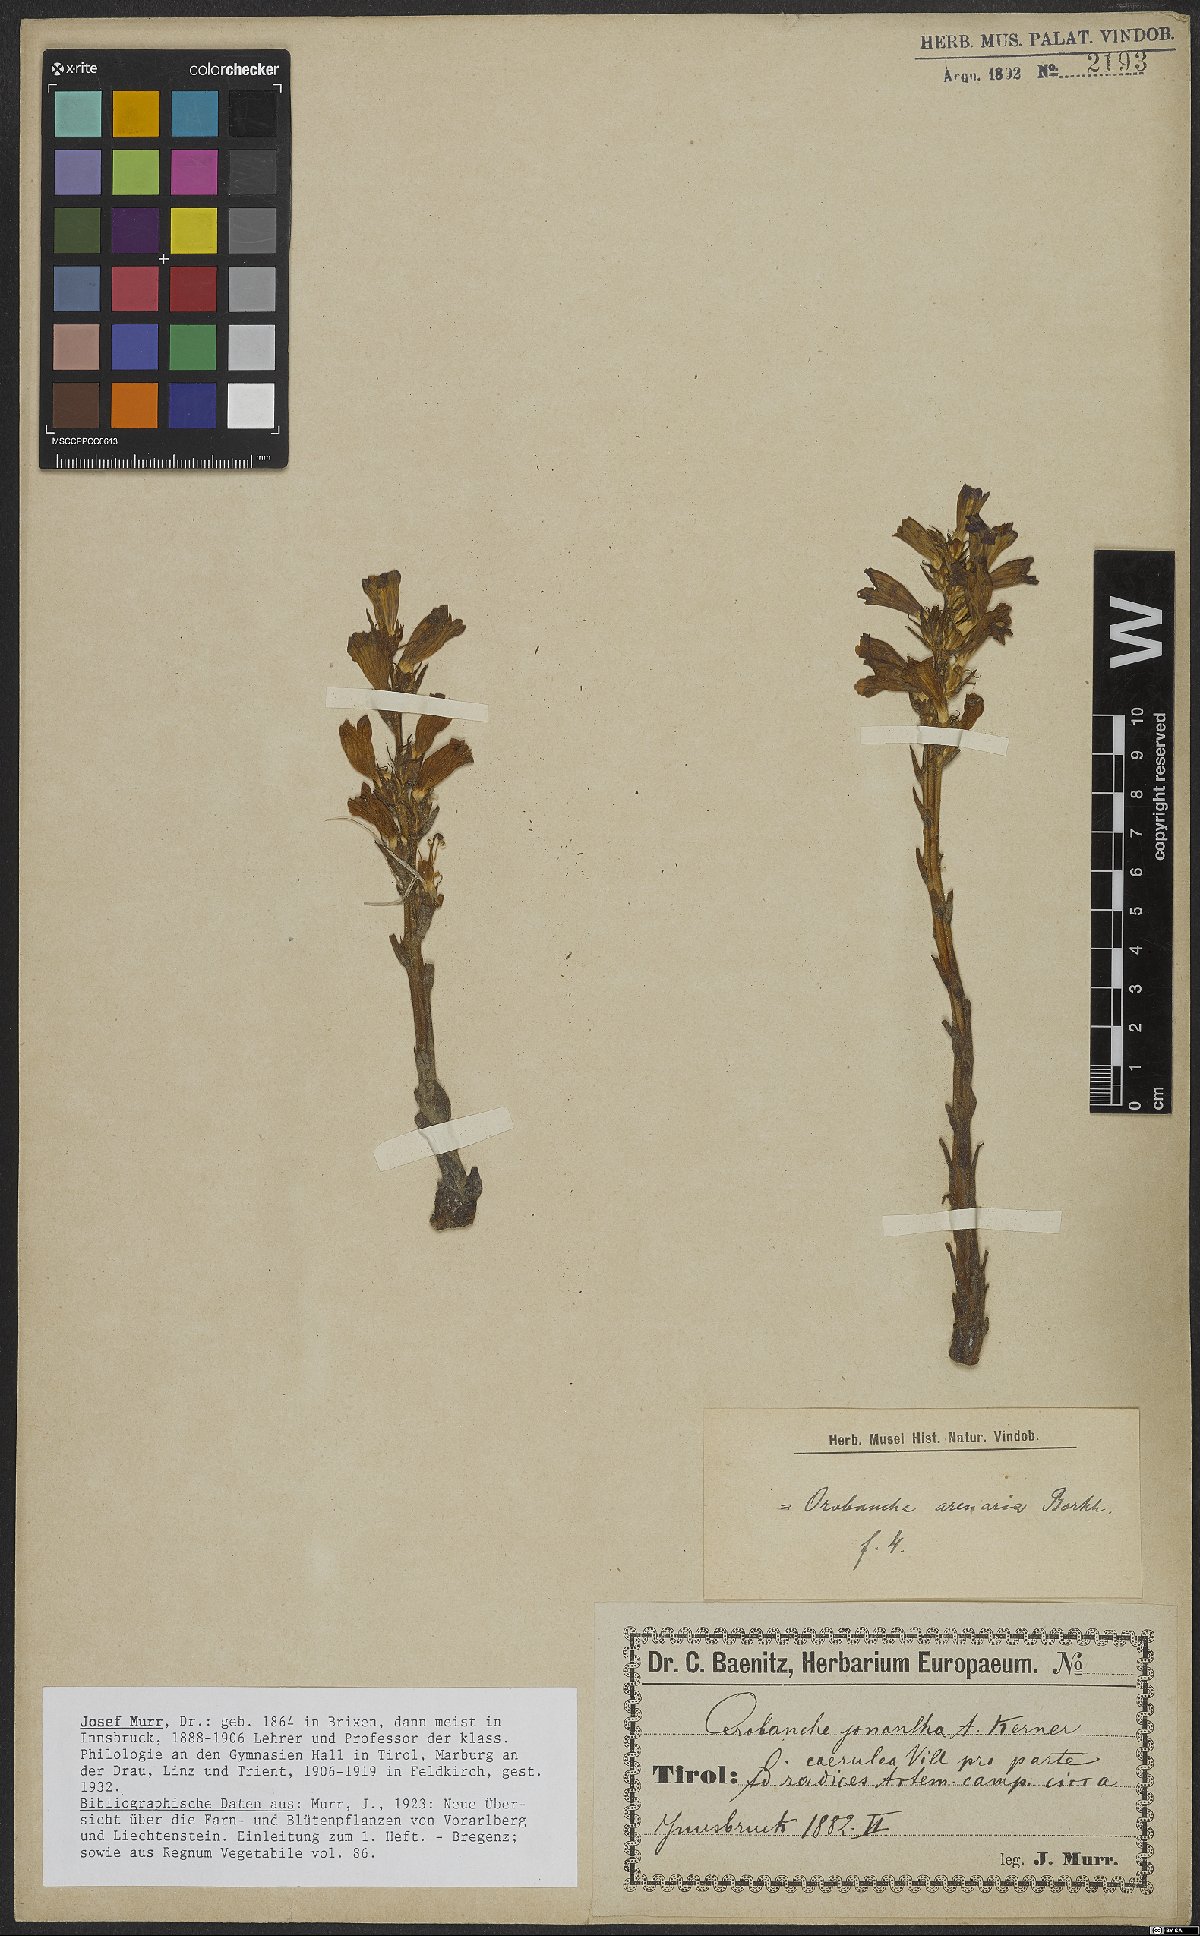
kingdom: Plantae
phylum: Tracheophyta
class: Magnoliopsida
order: Lamiales
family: Orobanchaceae
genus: Phelipanche
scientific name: Phelipanche arenaria
